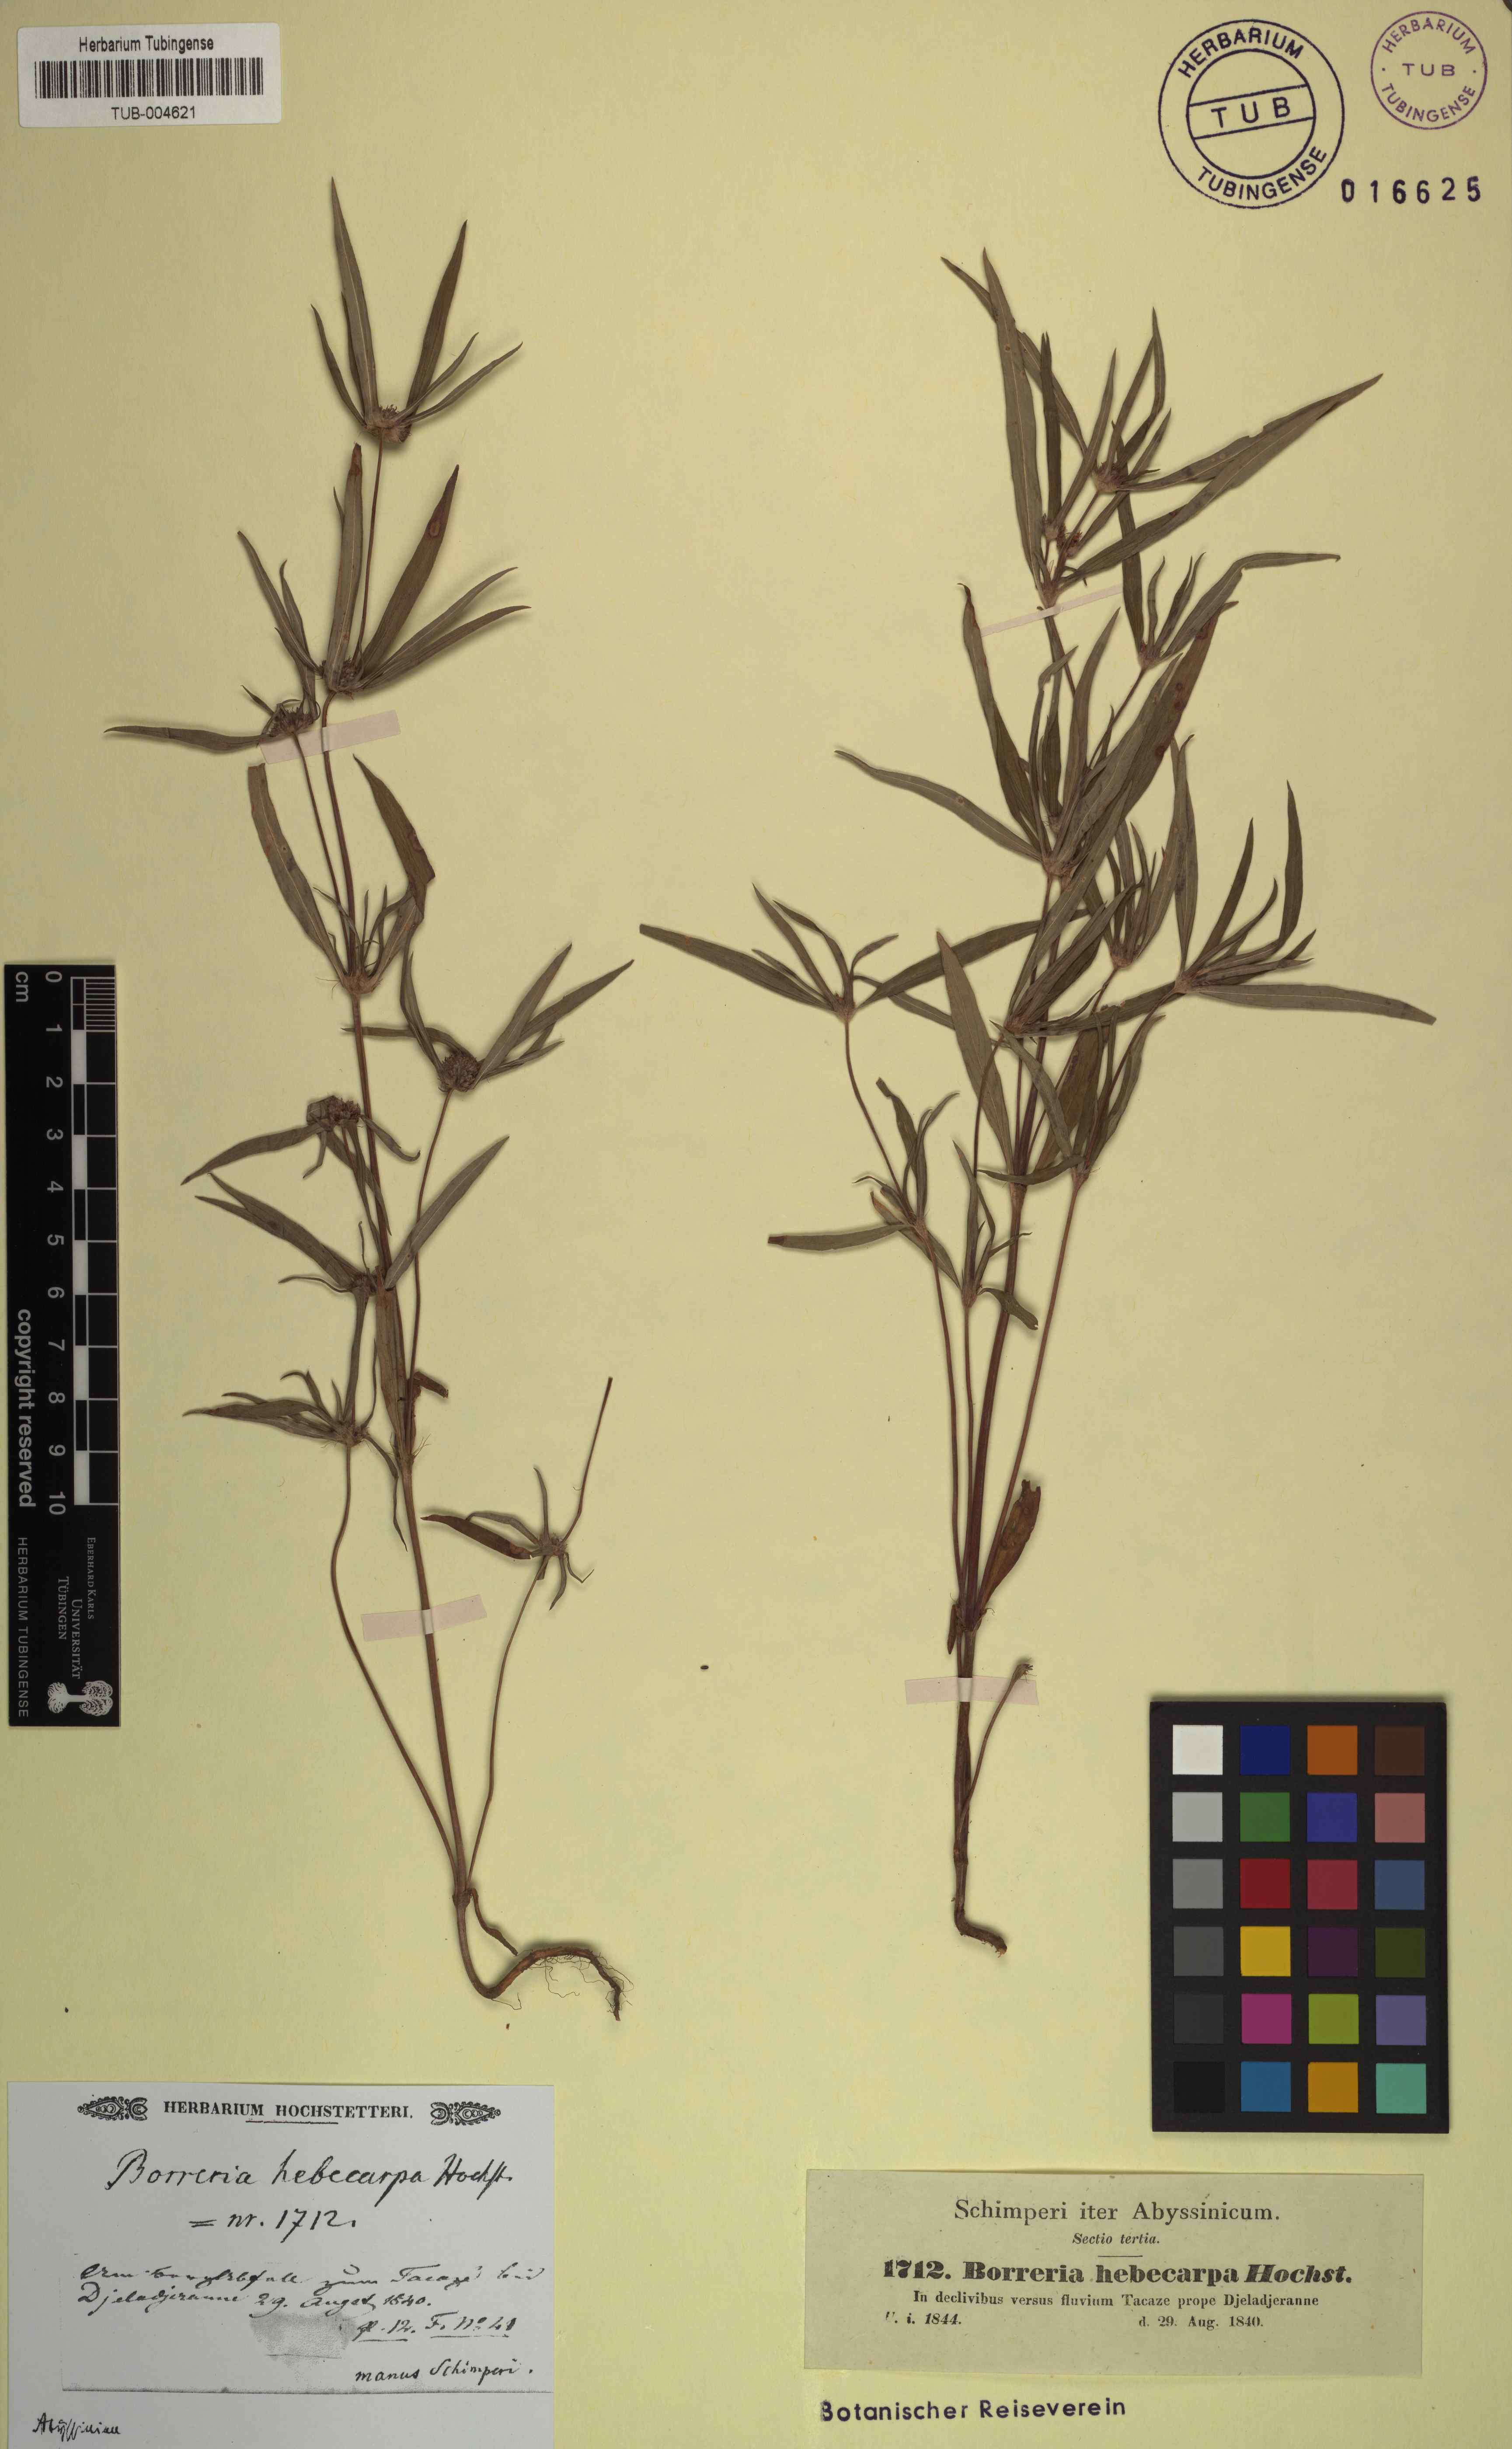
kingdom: Plantae
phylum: Tracheophyta
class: Magnoliopsida
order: Gentianales
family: Rubiaceae
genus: Spermacoce
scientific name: Spermacoce chaetocephala
